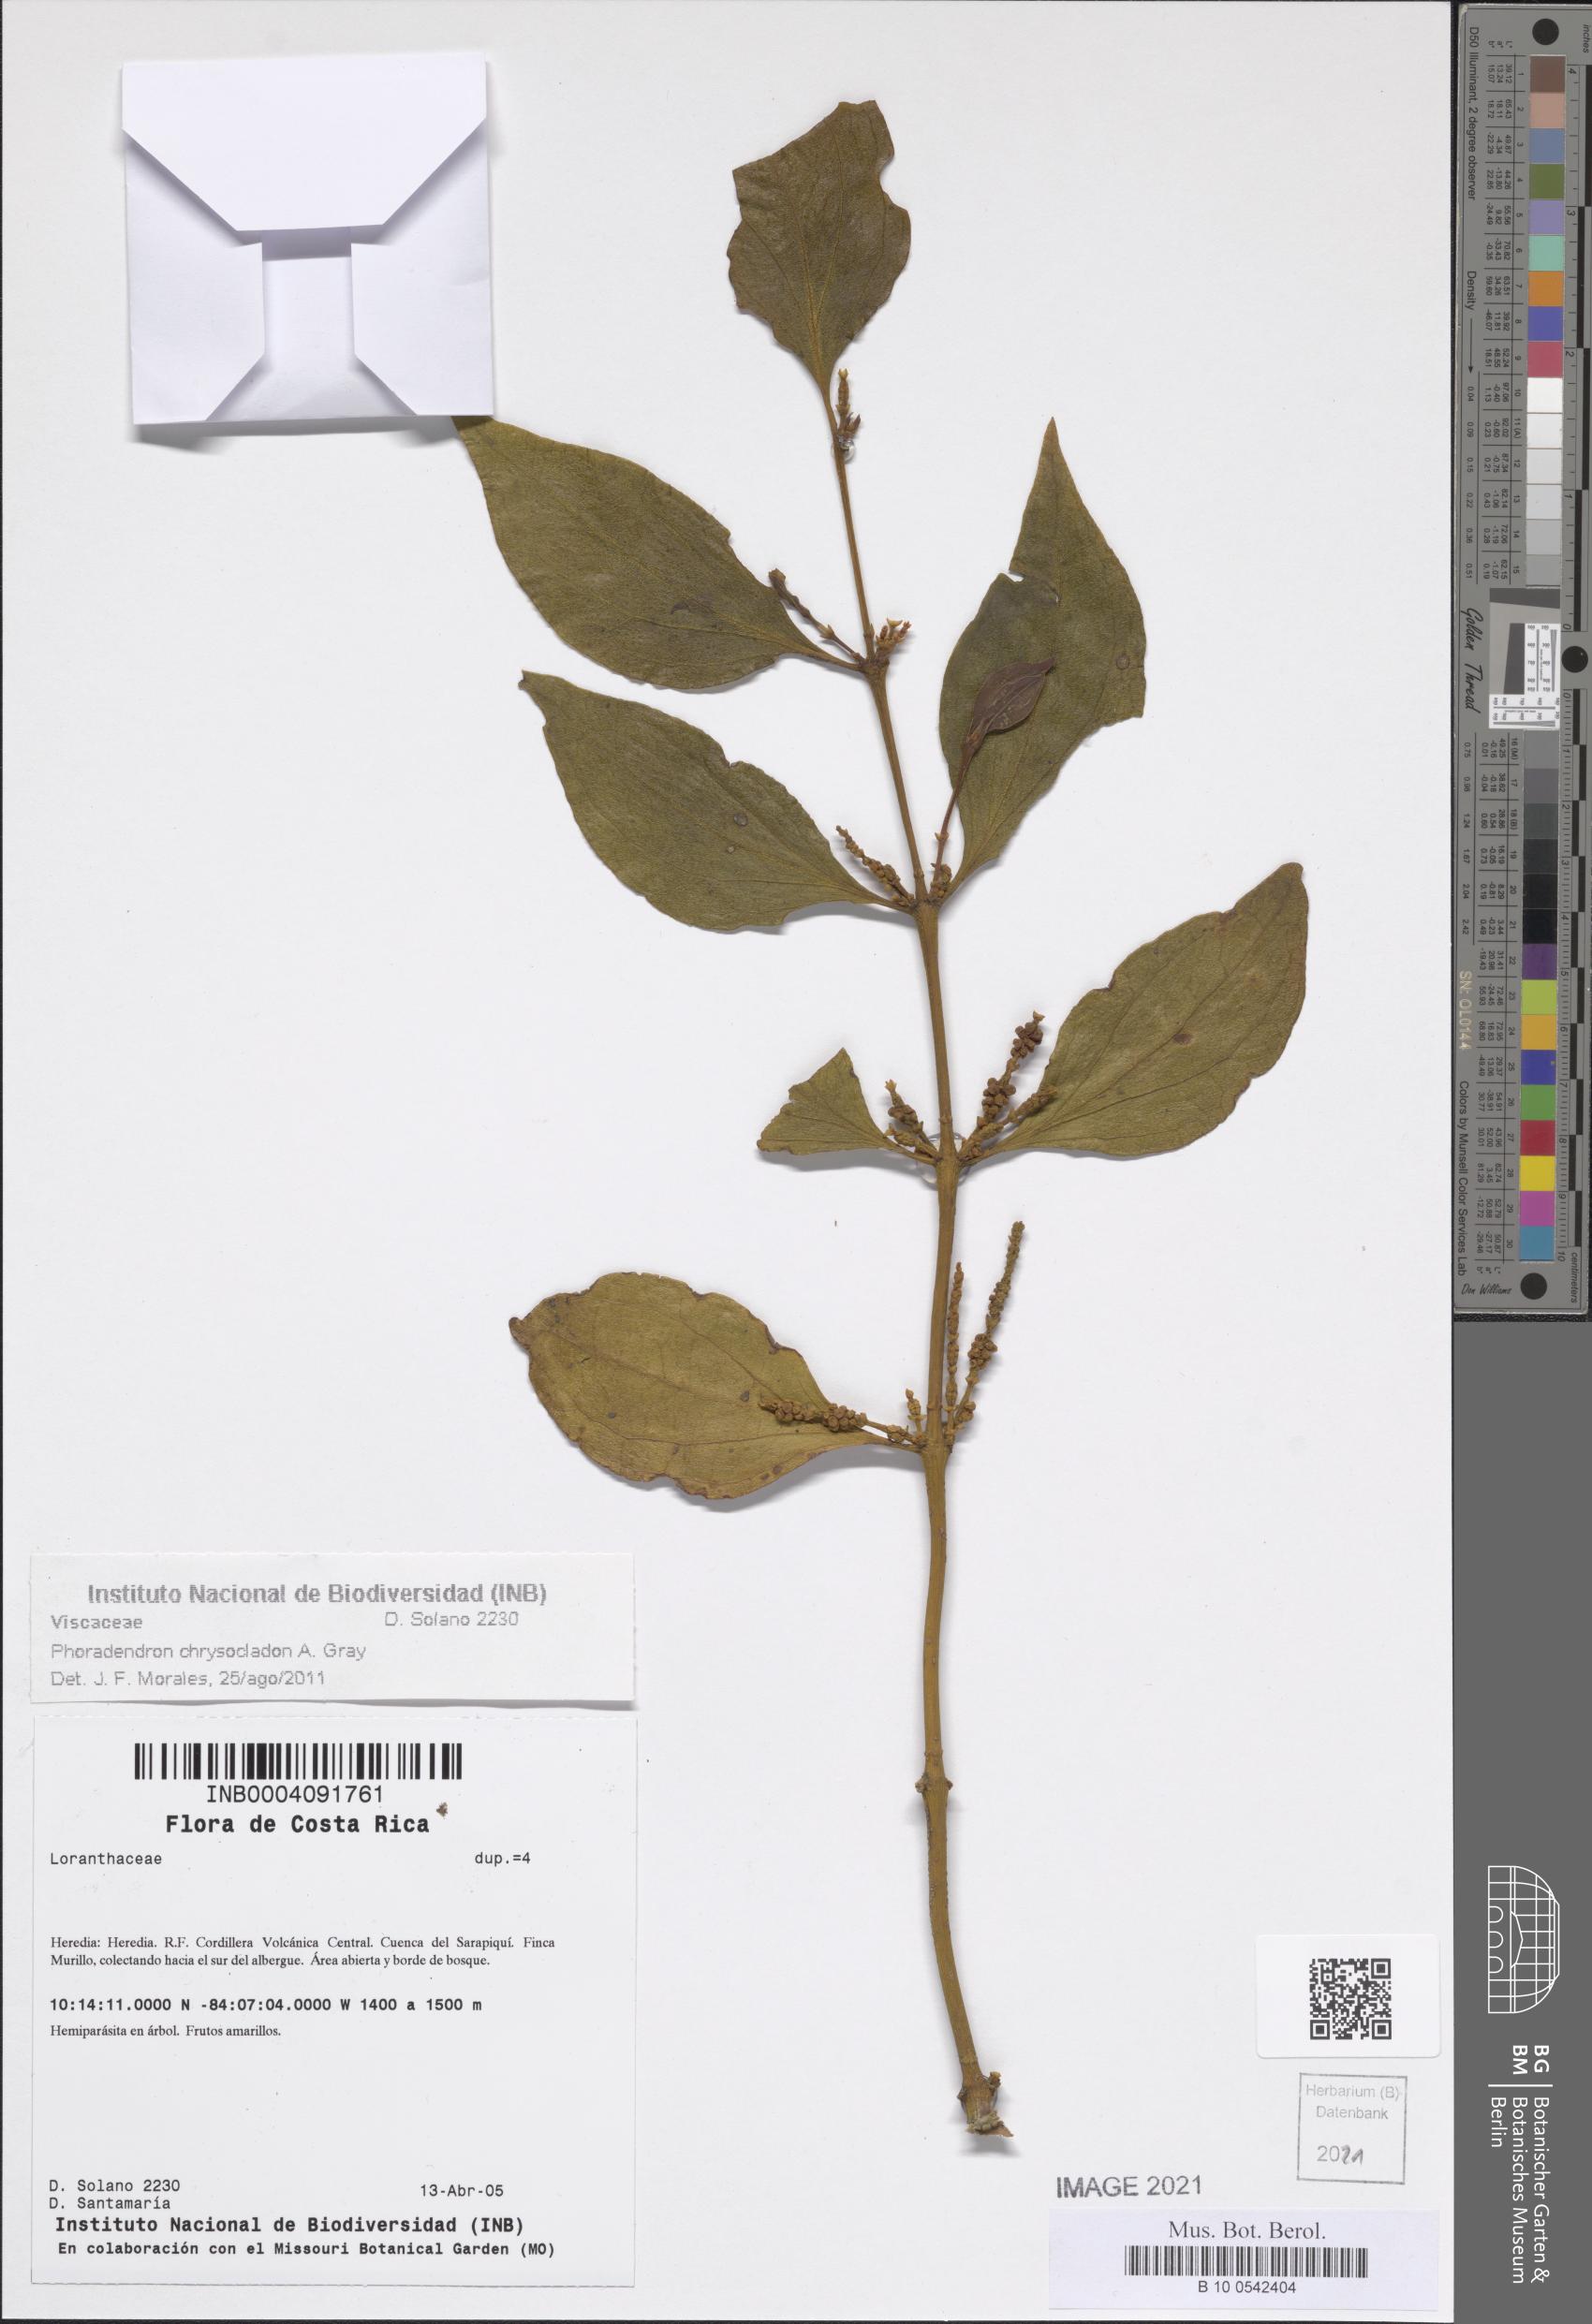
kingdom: Plantae
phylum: Tracheophyta
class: Magnoliopsida
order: Santalales
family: Viscaceae
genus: Phoradendron
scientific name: Phoradendron chrysocladon
